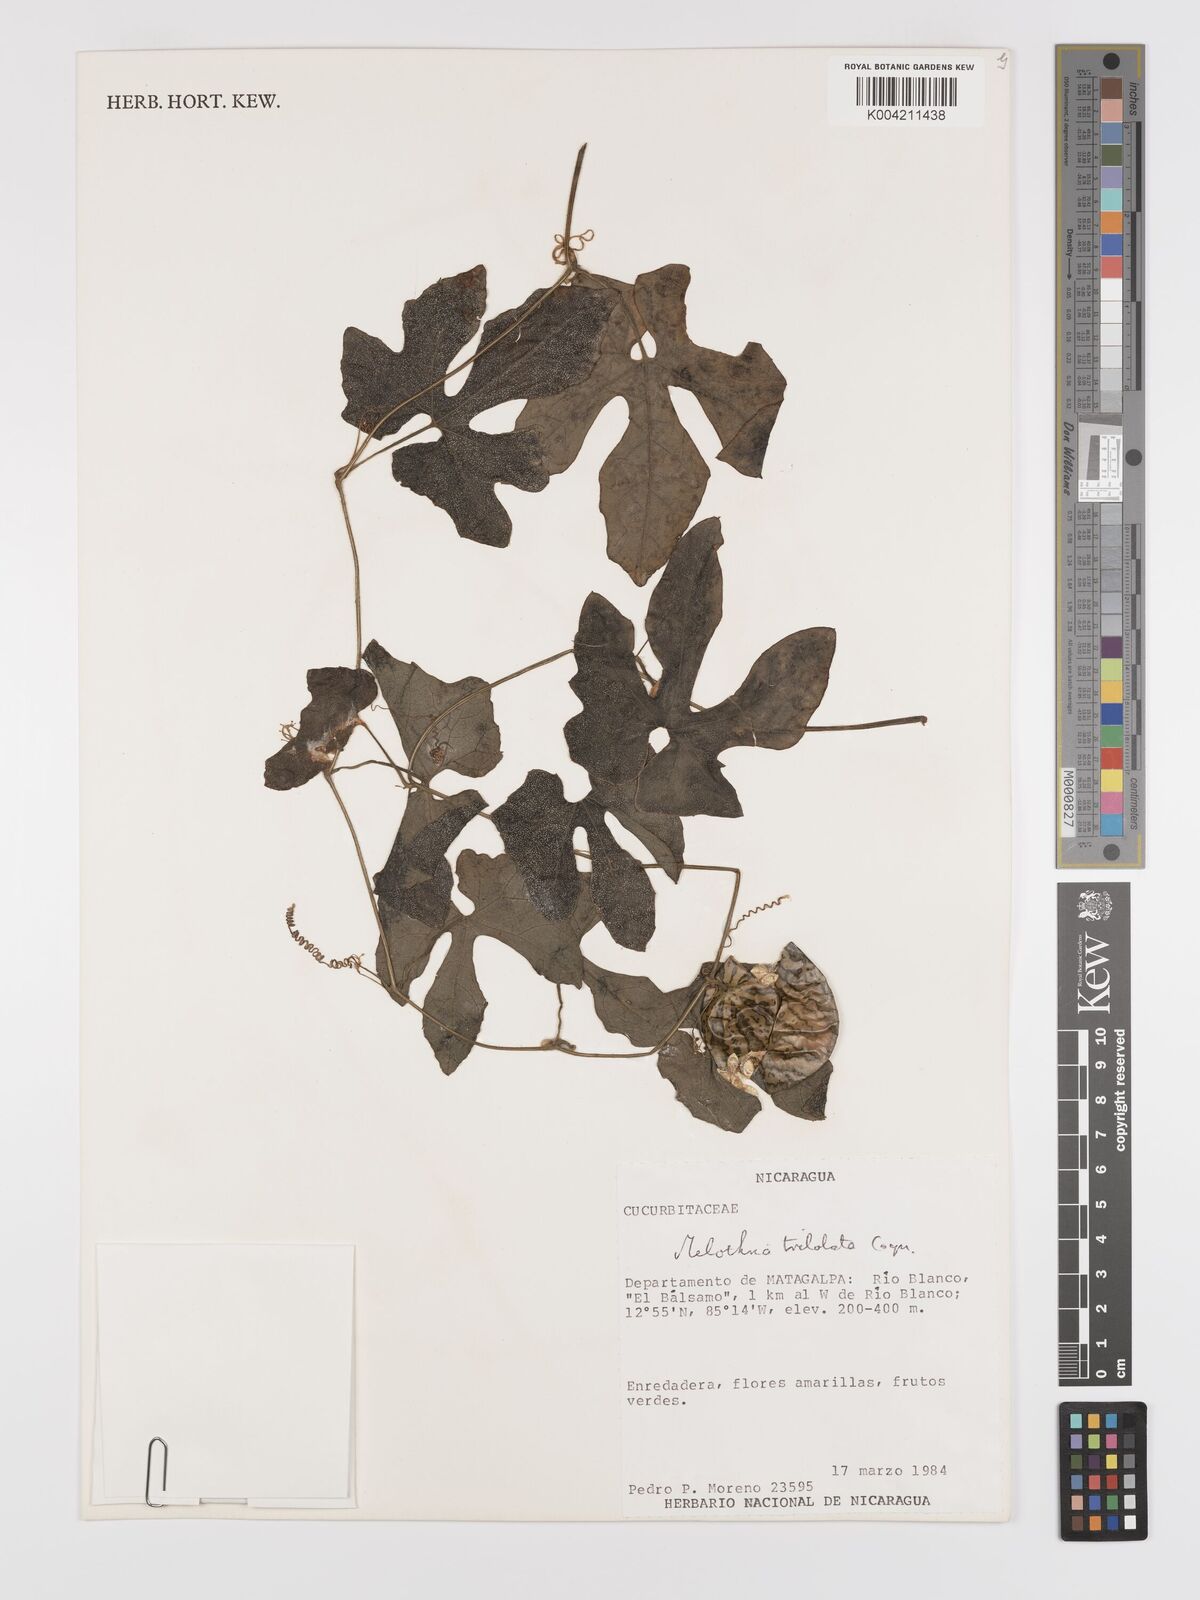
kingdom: Plantae
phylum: Tracheophyta
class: Magnoliopsida
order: Cucurbitales
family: Cucurbitaceae
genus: Melothria
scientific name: Melothria trilobata
